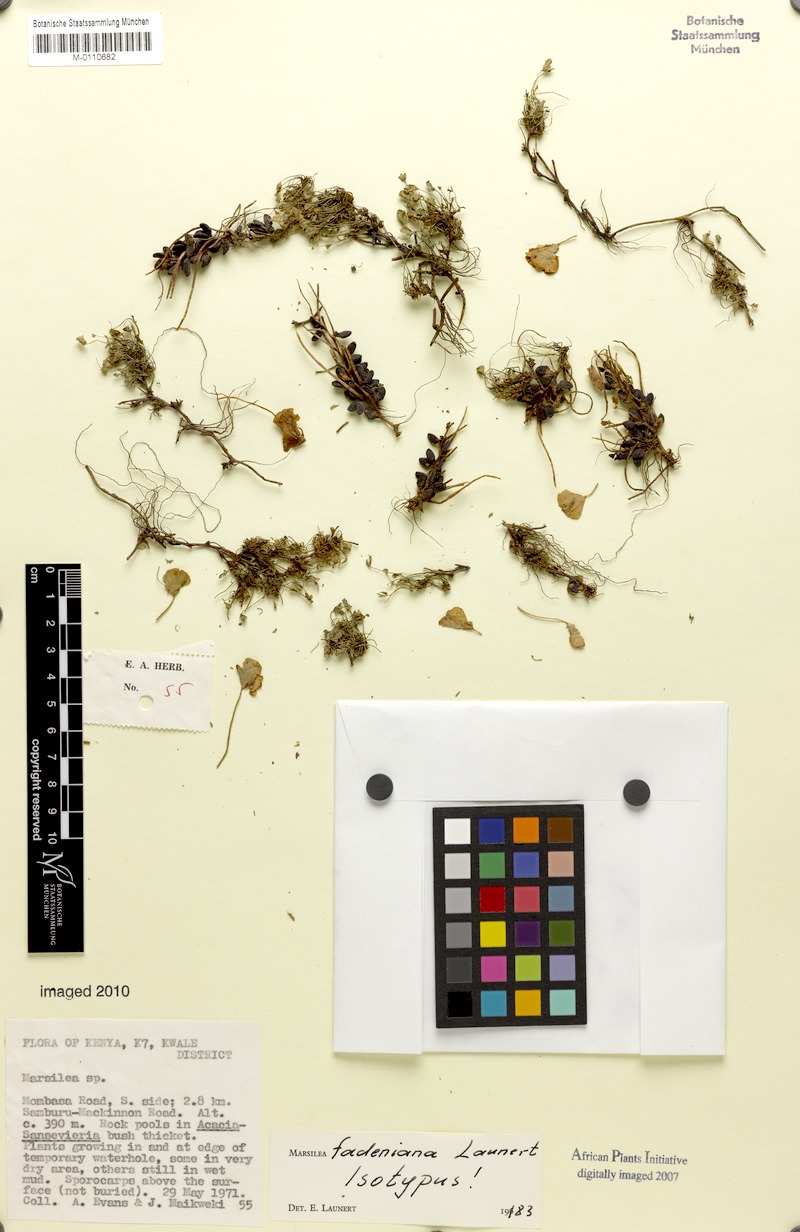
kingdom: Plantae
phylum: Tracheophyta
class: Polypodiopsida
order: Salviniales
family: Marsileaceae
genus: Marsilea
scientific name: Marsilea fadeniana
